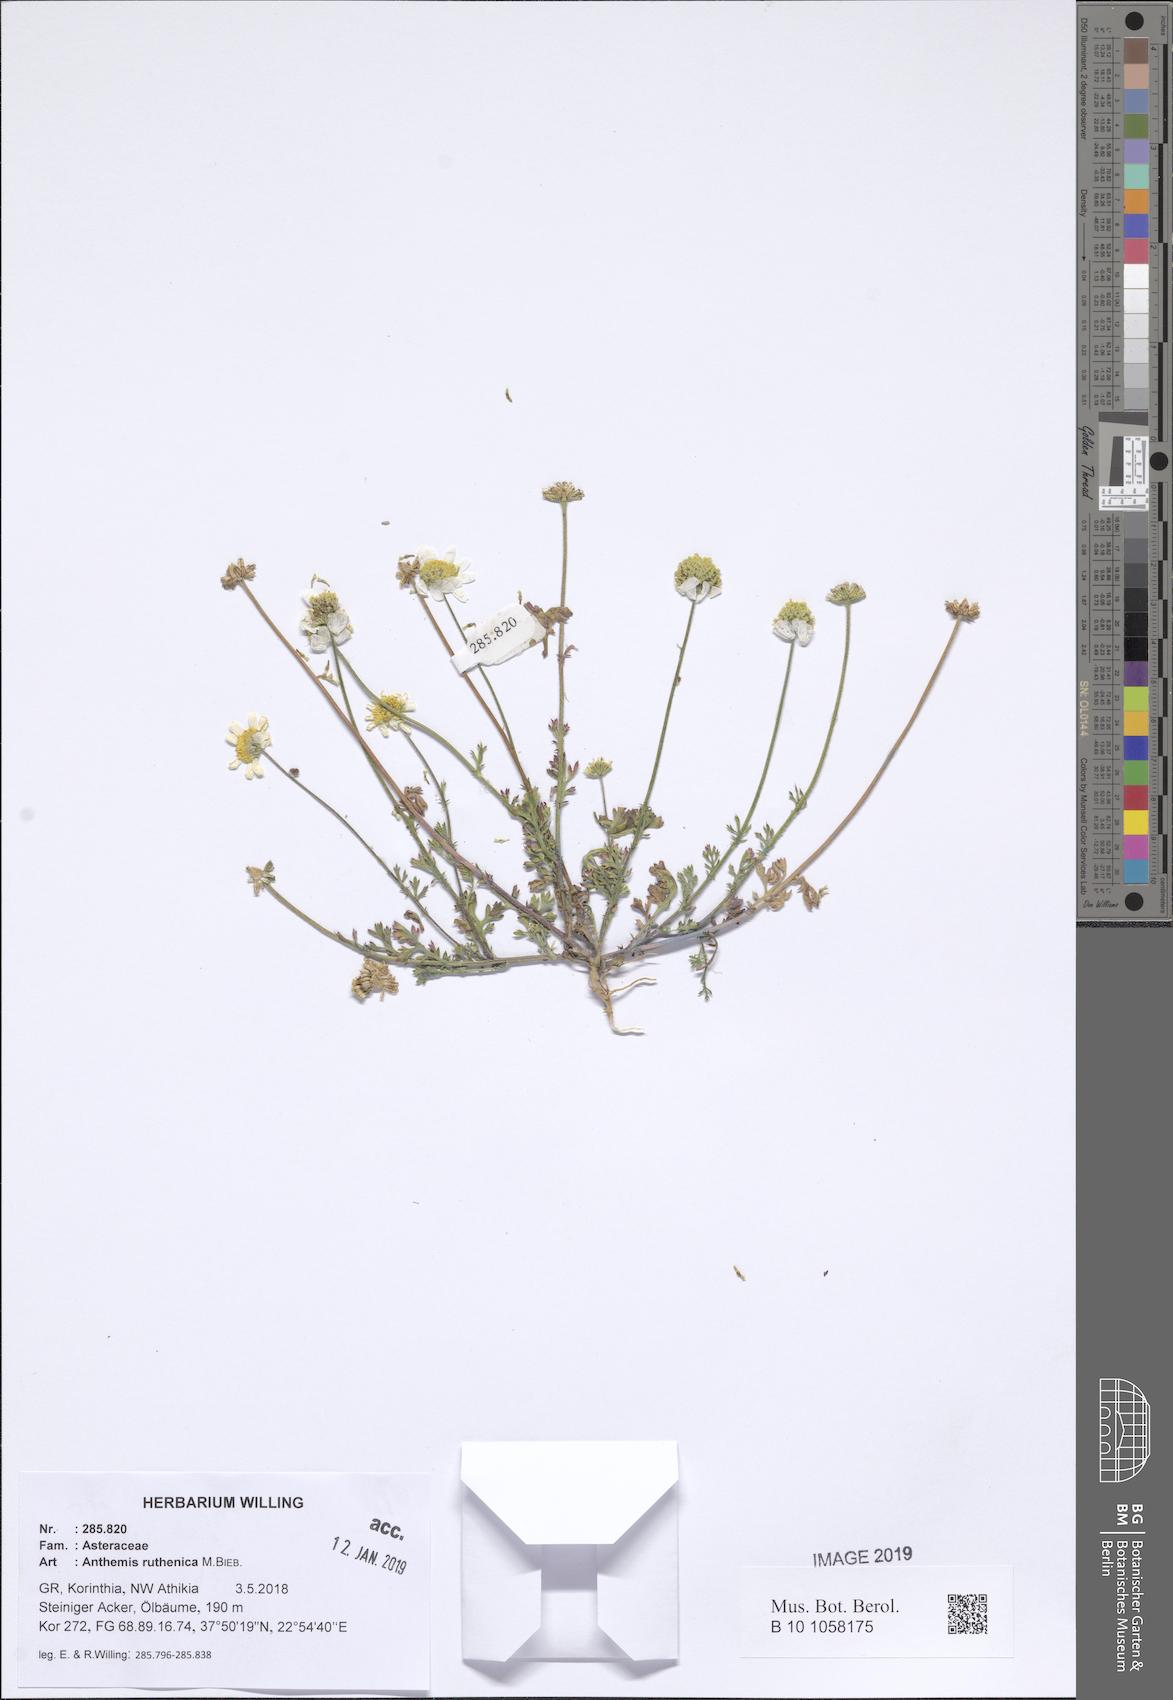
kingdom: Plantae
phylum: Tracheophyta
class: Magnoliopsida
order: Asterales
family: Asteraceae
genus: Anthemis
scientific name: Anthemis ruthenica
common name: Eastern chamomile
